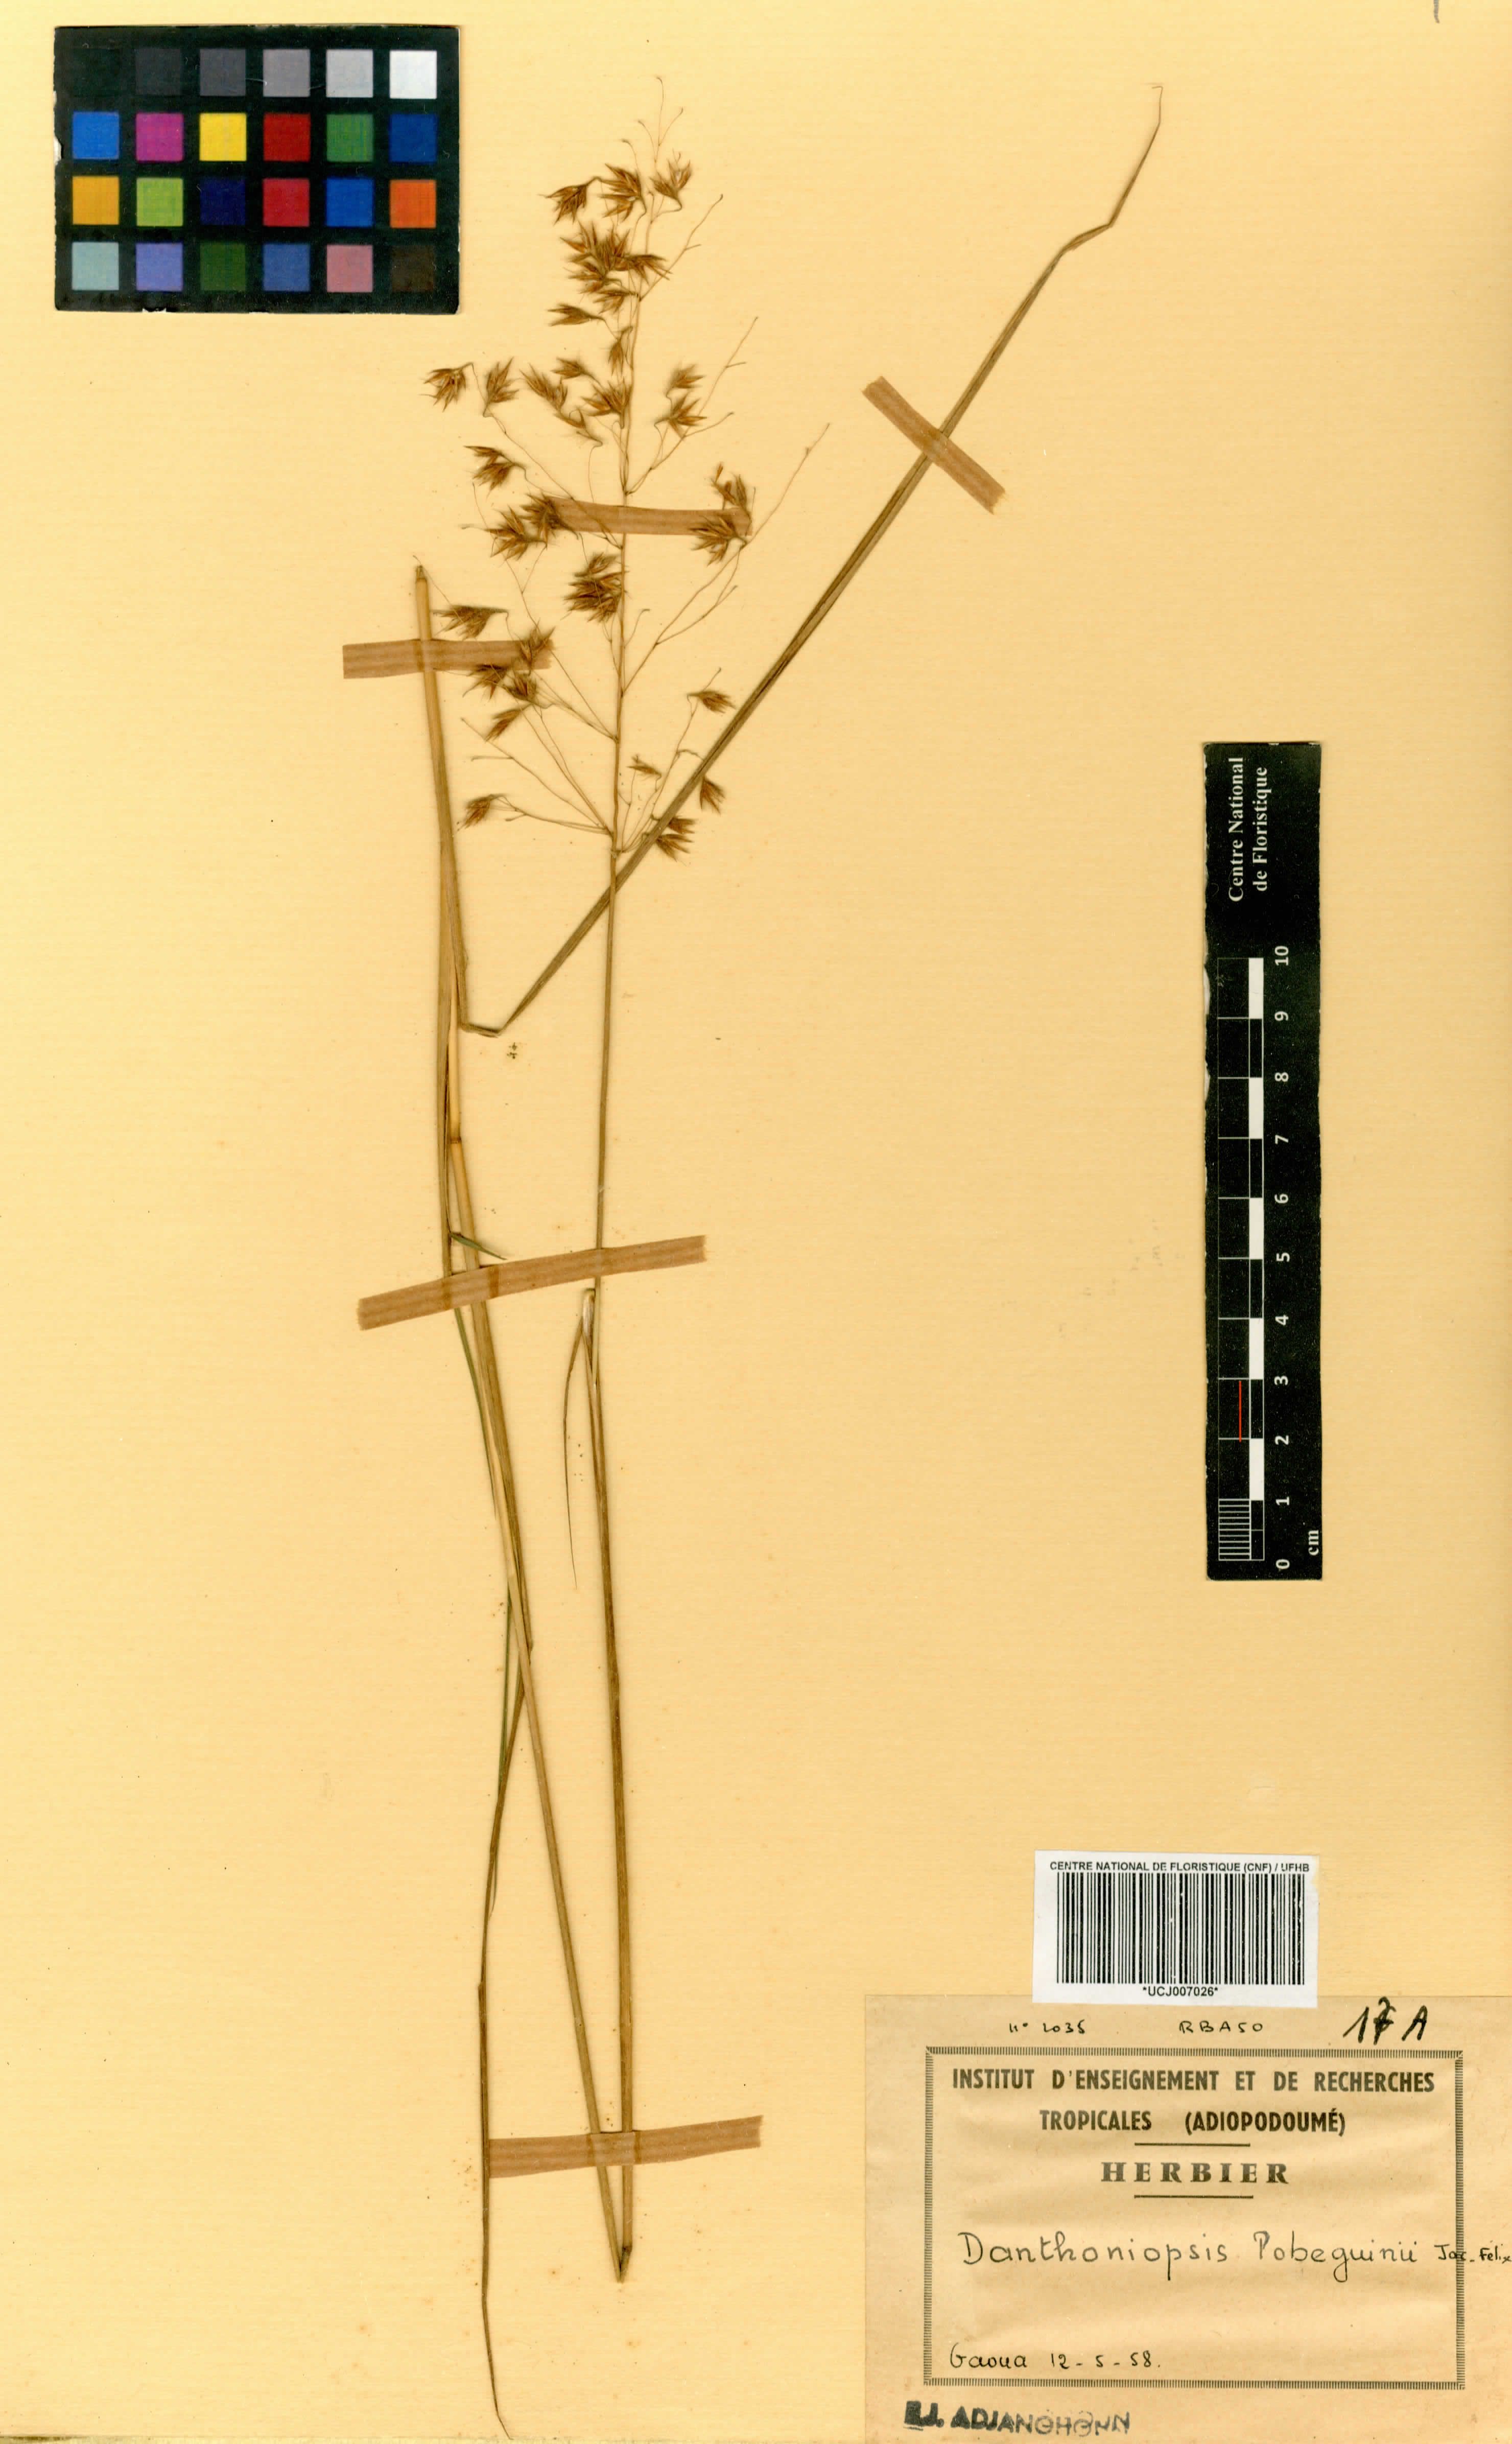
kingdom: Plantae
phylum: Tracheophyta
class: Liliopsida
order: Poales
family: Poaceae
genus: Dilophotriche
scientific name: Dilophotriche pobeguinii
